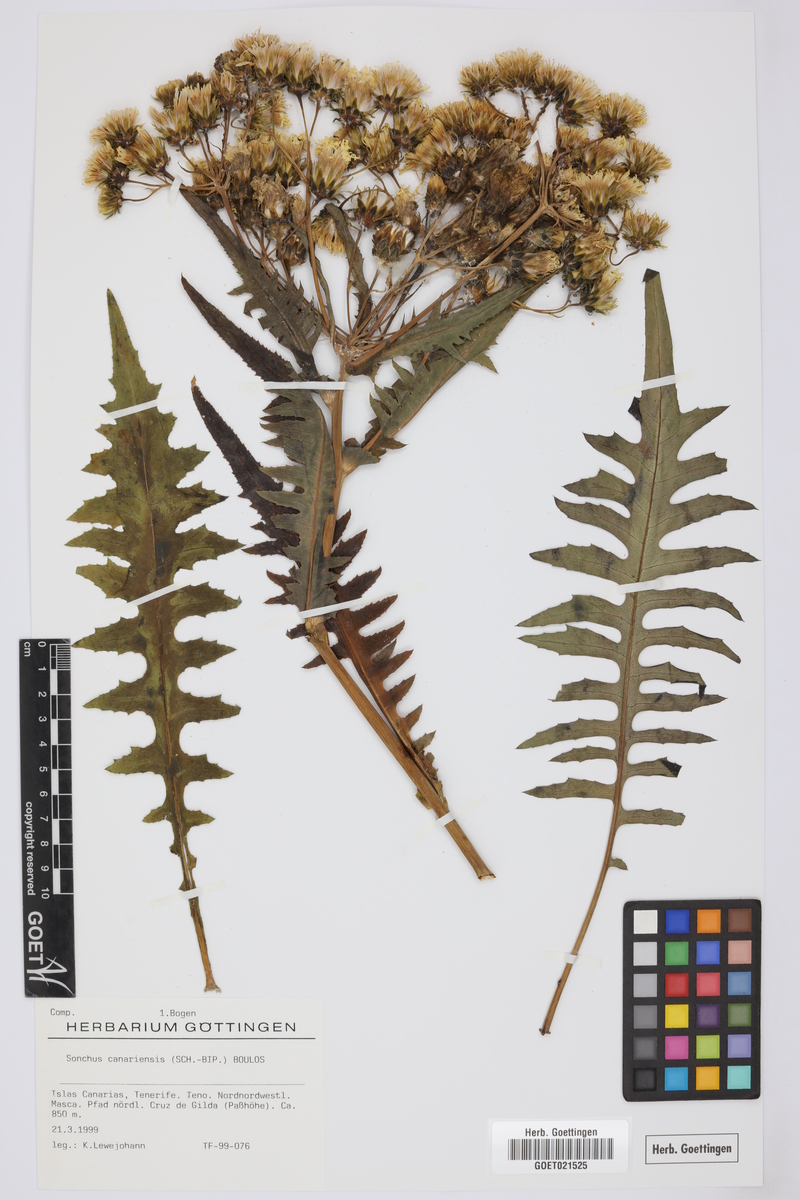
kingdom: Plantae
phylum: Tracheophyta
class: Magnoliopsida
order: Asterales
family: Asteraceae
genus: Sonchus
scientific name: Sonchus canariensis
